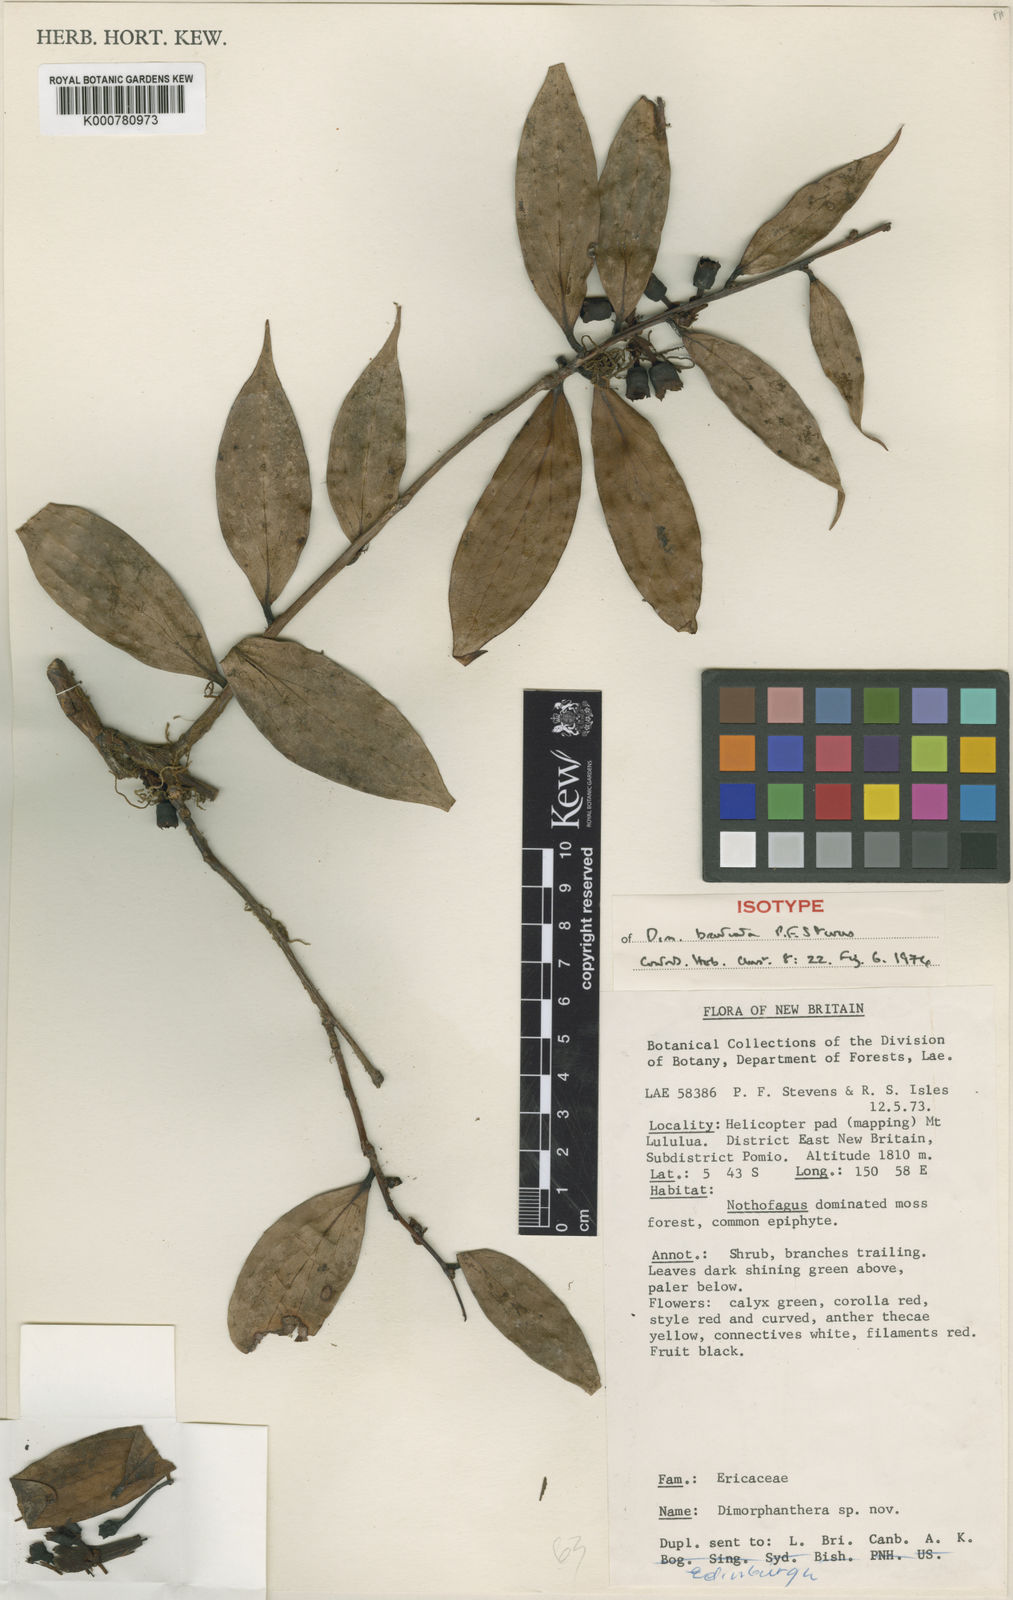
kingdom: Plantae
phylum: Tracheophyta
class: Magnoliopsida
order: Ericales
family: Ericaceae
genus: Dimorphanthera
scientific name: Dimorphanthera bracteata
